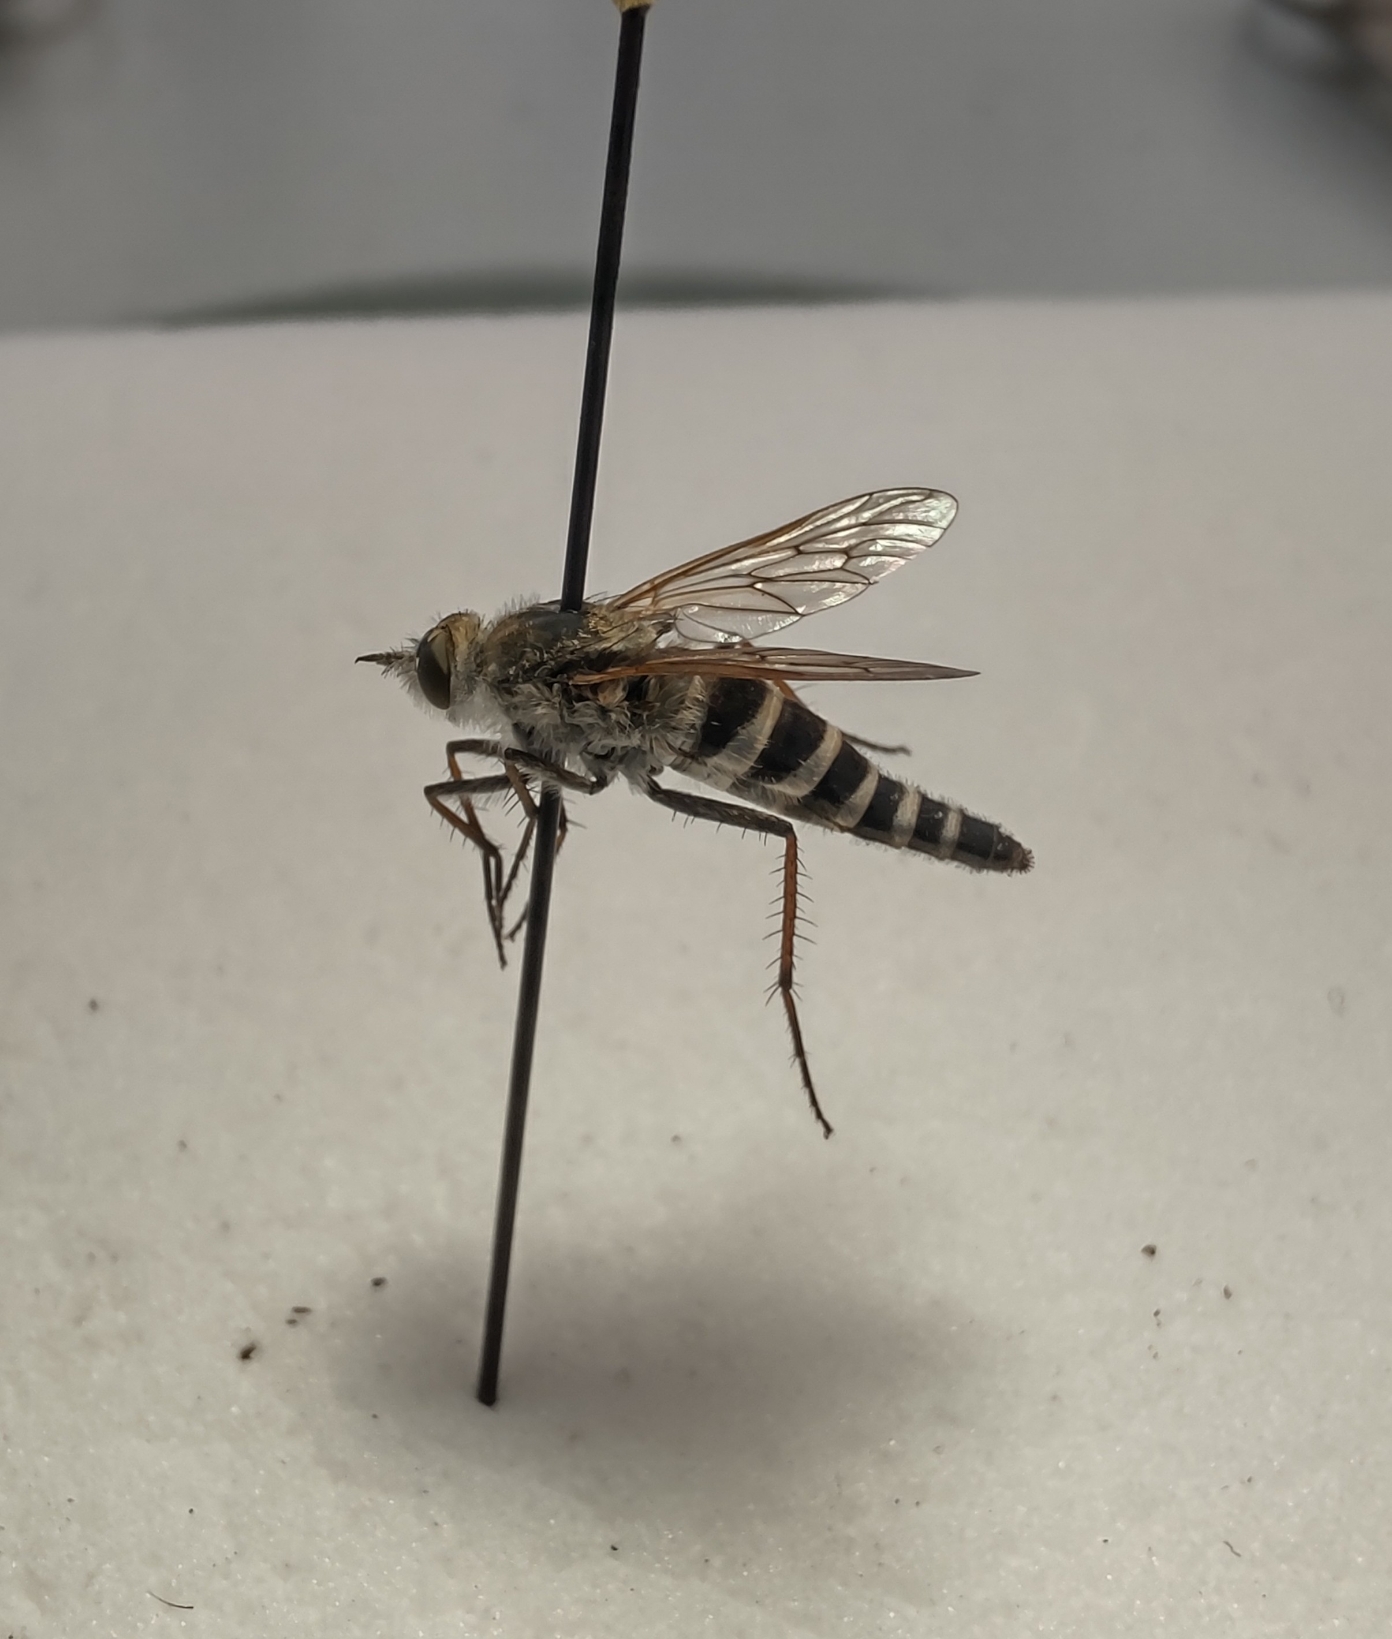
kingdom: Animalia
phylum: Arthropoda
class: Insecta
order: Diptera
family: Therevidae
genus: Thereva
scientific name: Thereva plebeja
